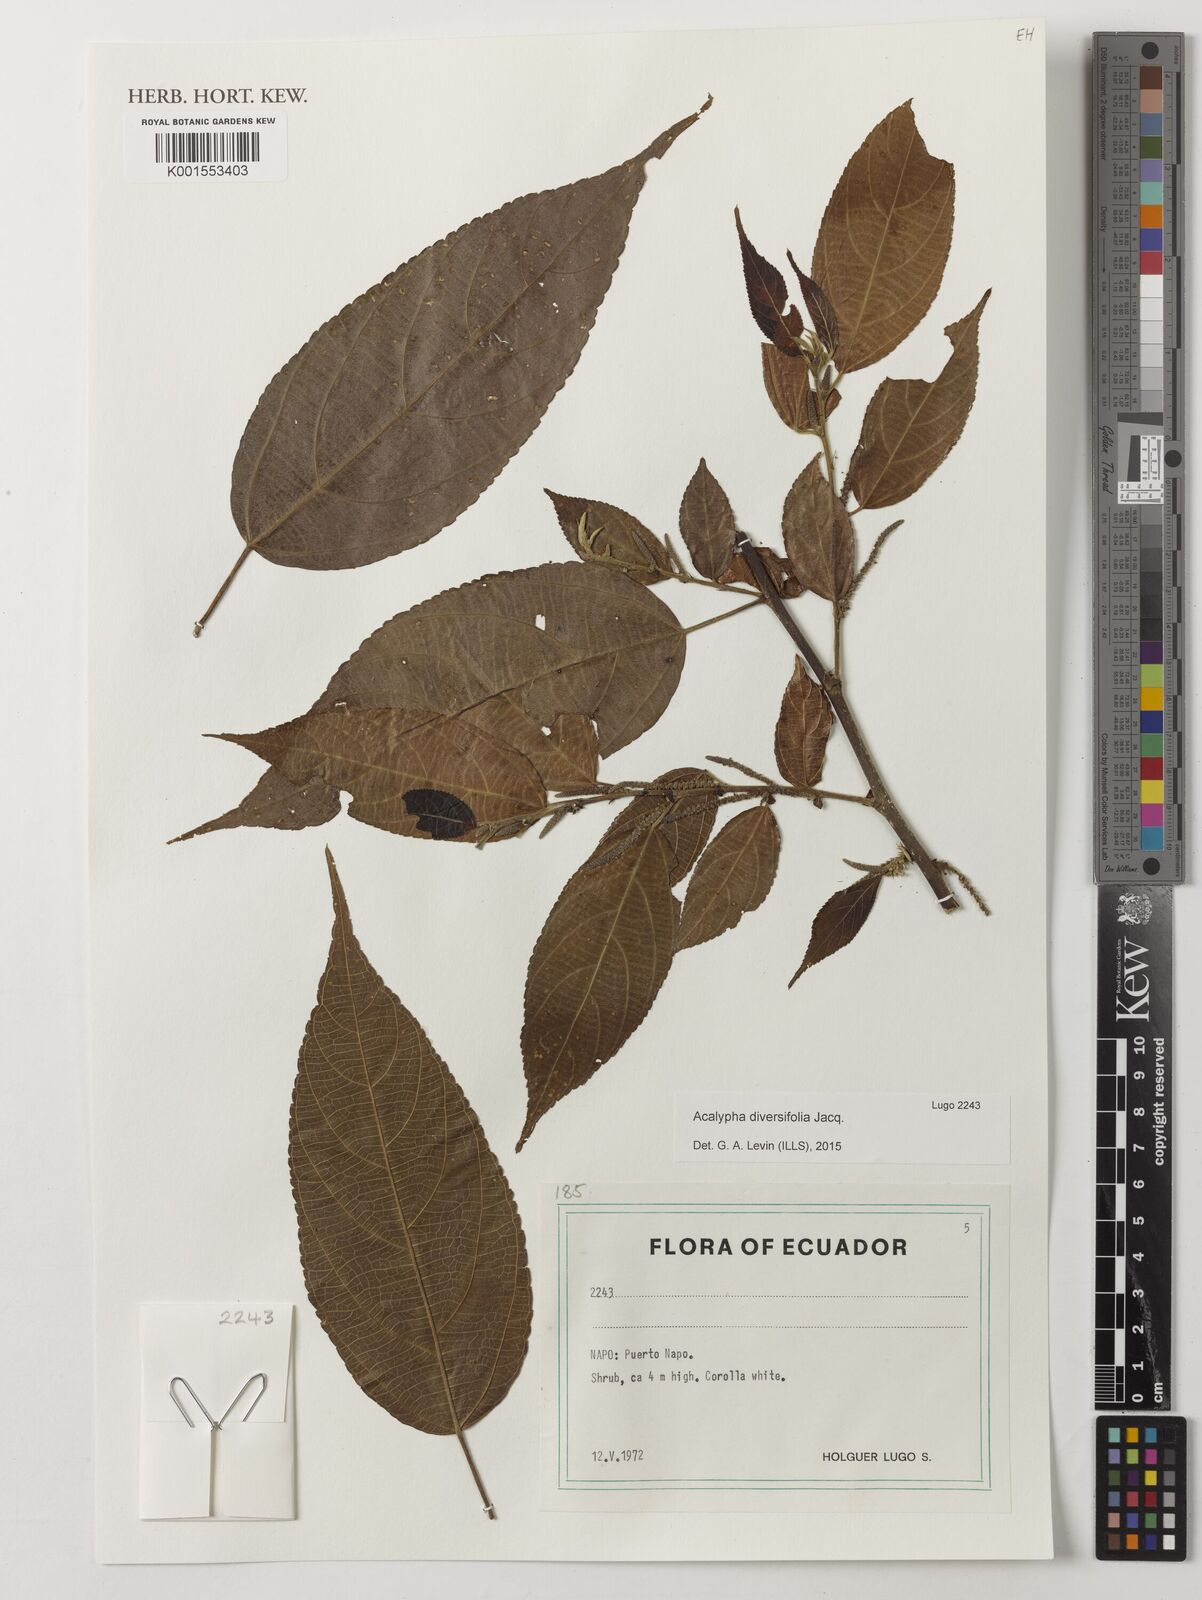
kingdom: Plantae
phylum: Tracheophyta
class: Magnoliopsida
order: Malpighiales
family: Euphorbiaceae
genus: Acalypha
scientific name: Acalypha diversifolia
